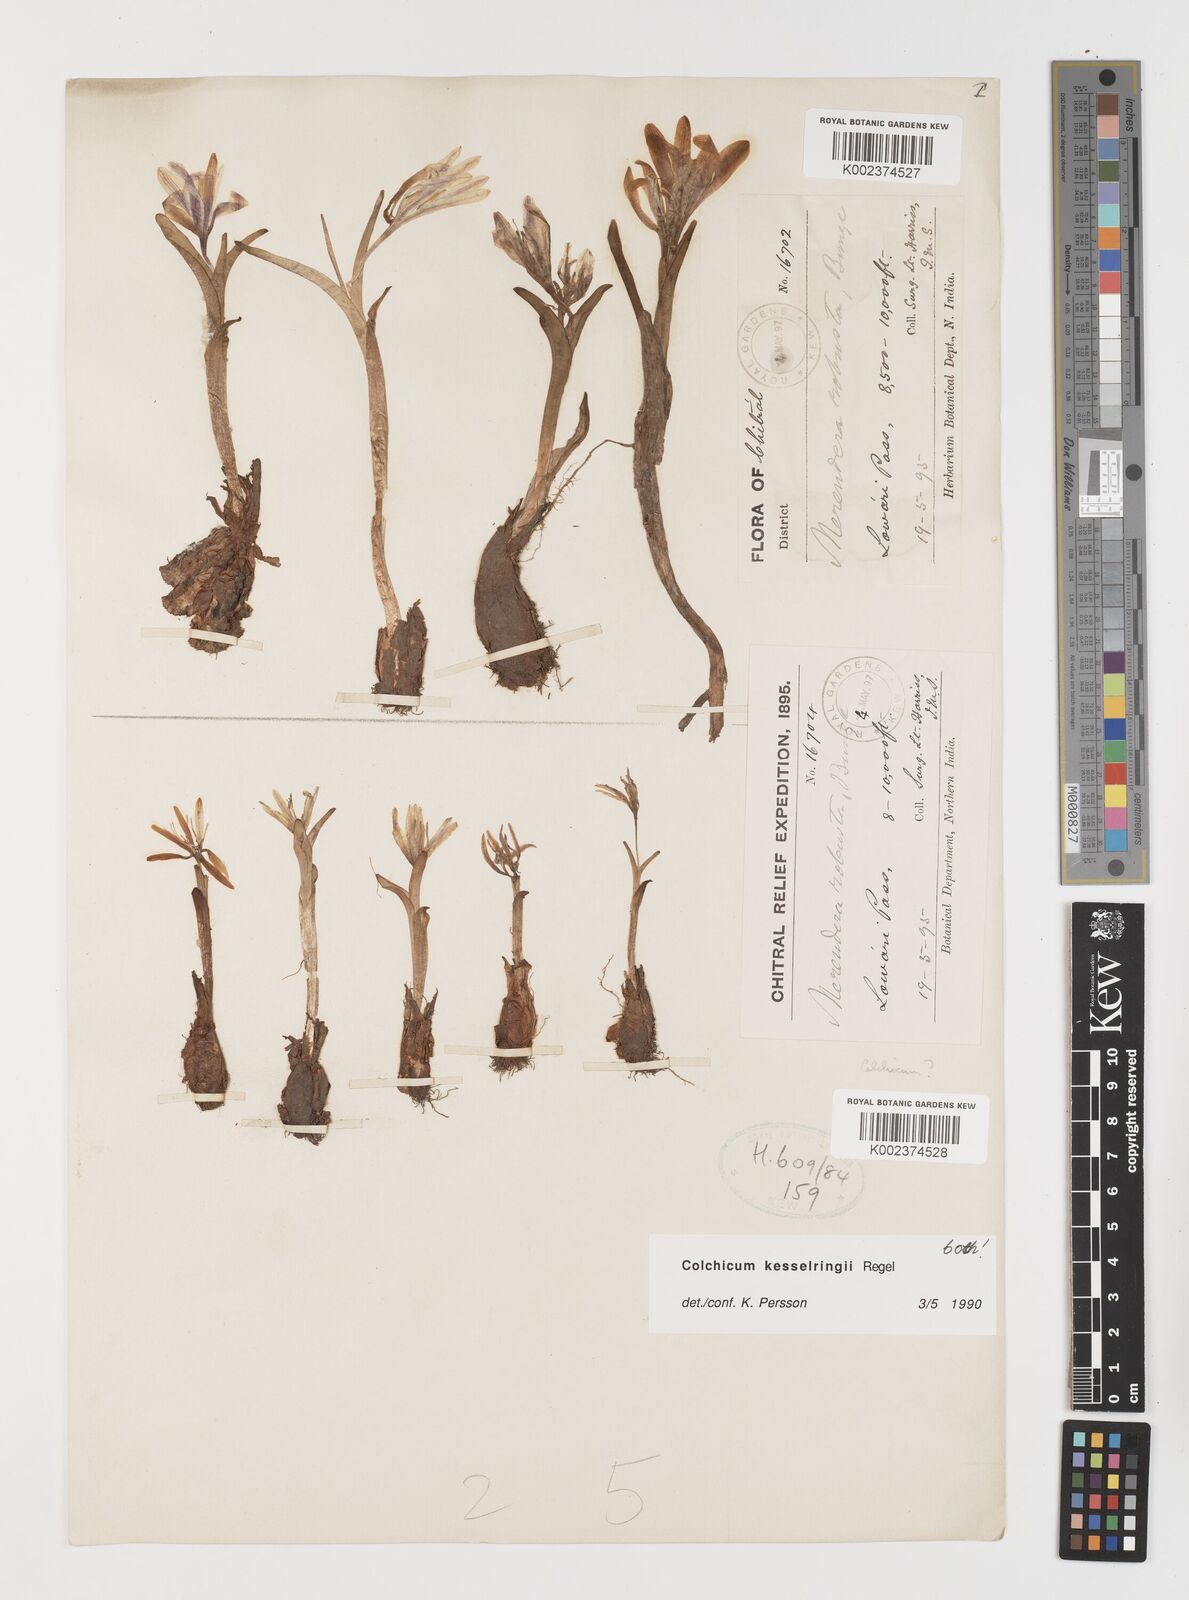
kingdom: Plantae
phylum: Tracheophyta
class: Liliopsida
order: Liliales
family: Colchicaceae
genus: Colchicum
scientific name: Colchicum kesselringii
